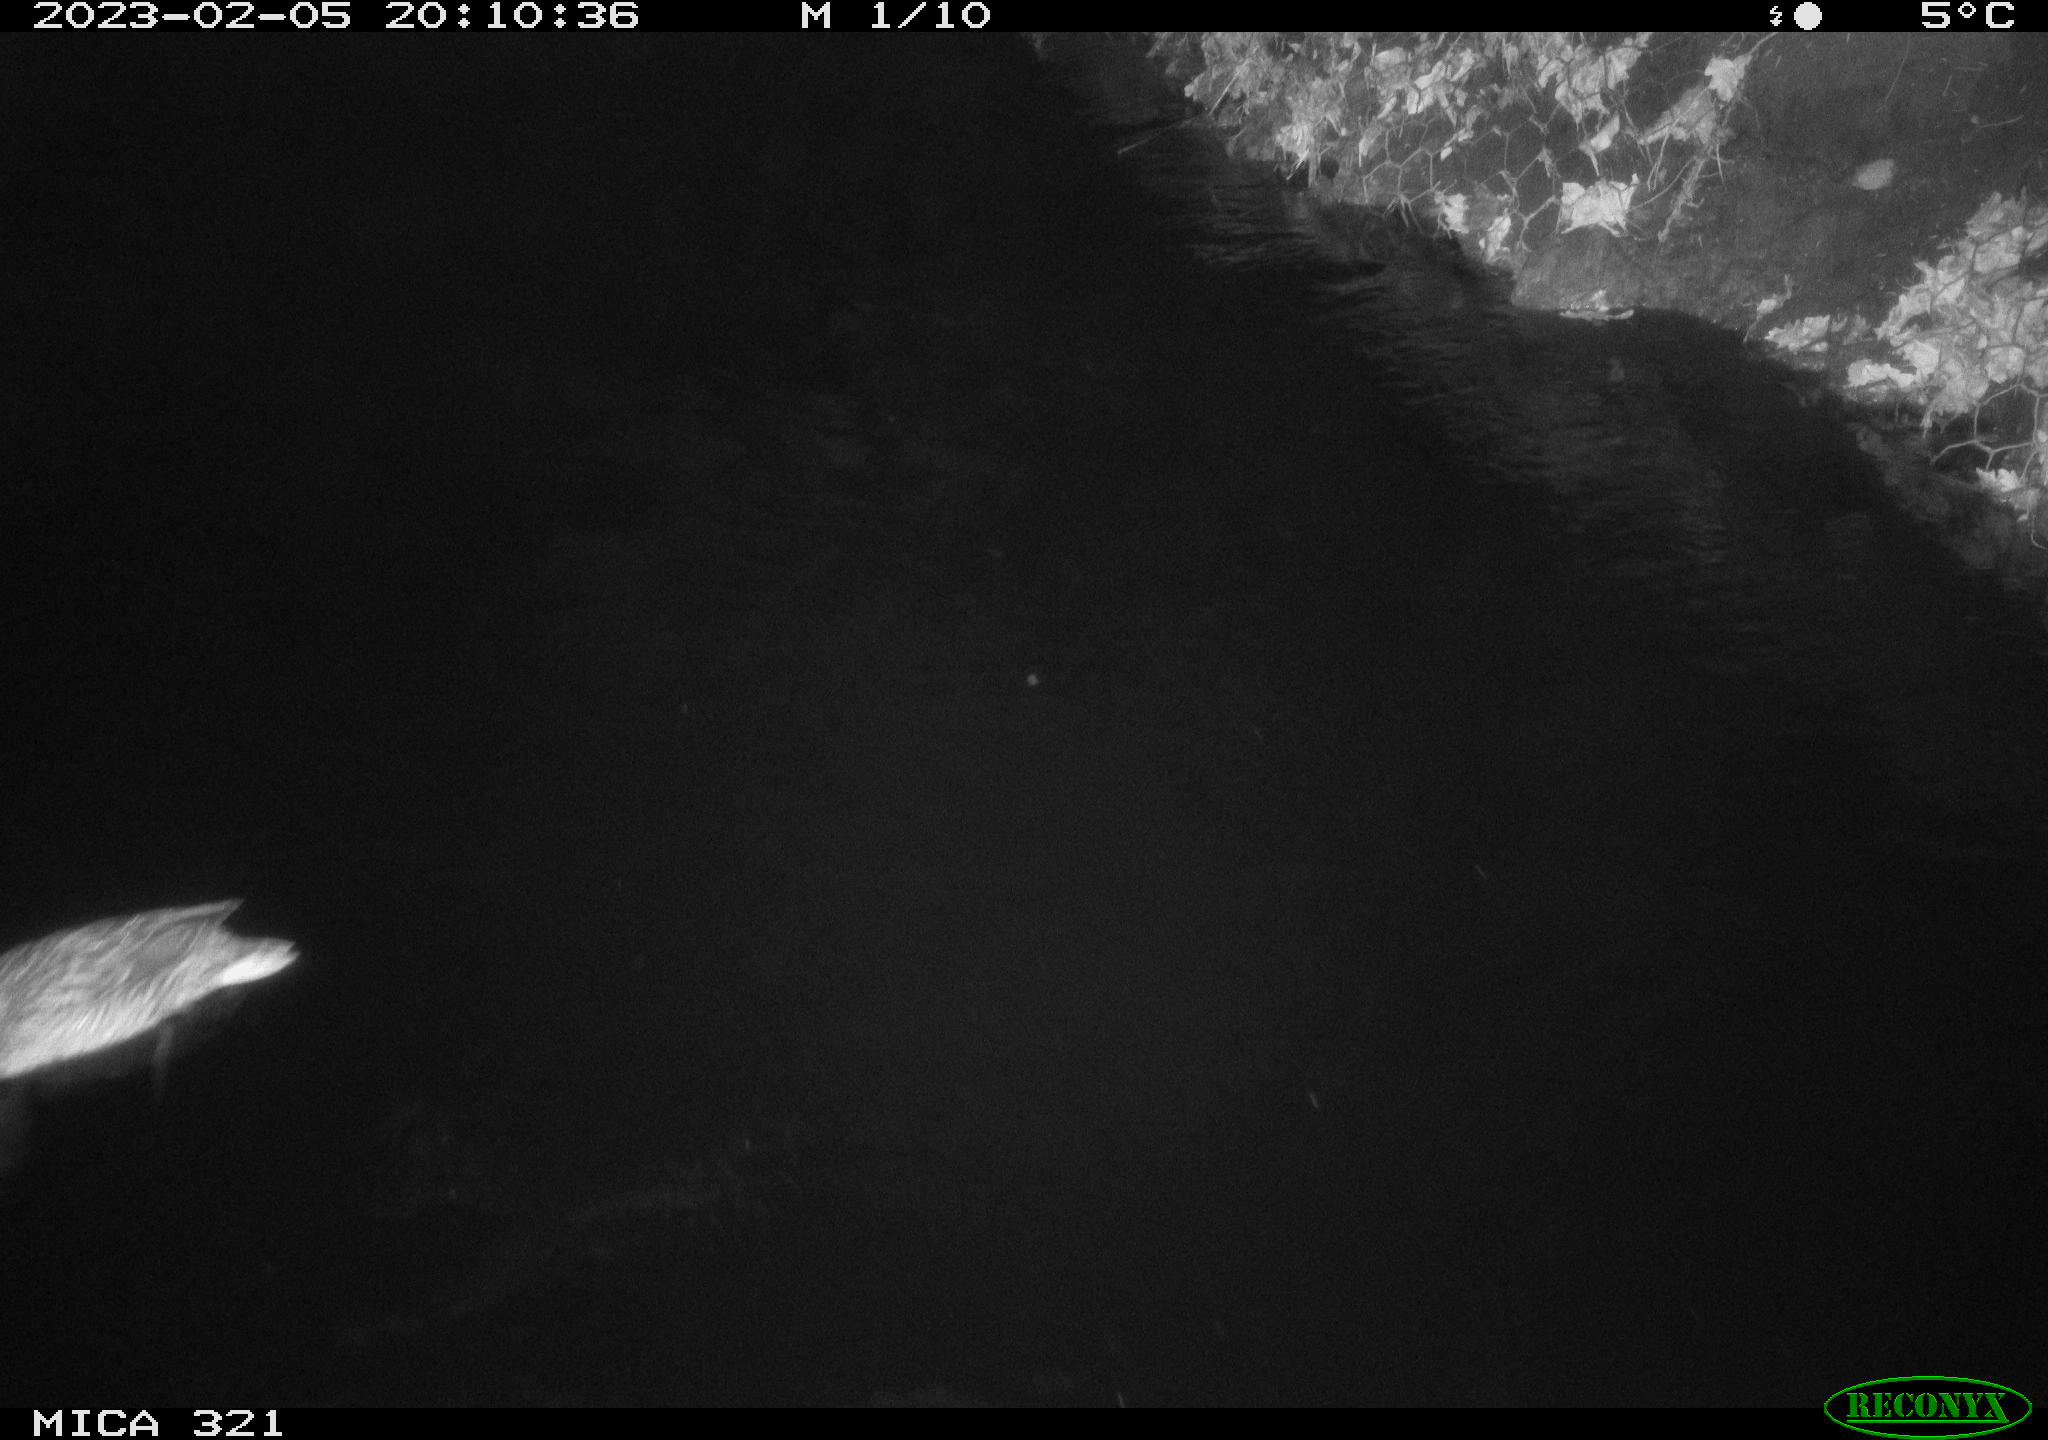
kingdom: Animalia
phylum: Chordata
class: Aves
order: Gruiformes
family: Rallidae
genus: Fulica
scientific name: Fulica atra
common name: Eurasian coot
